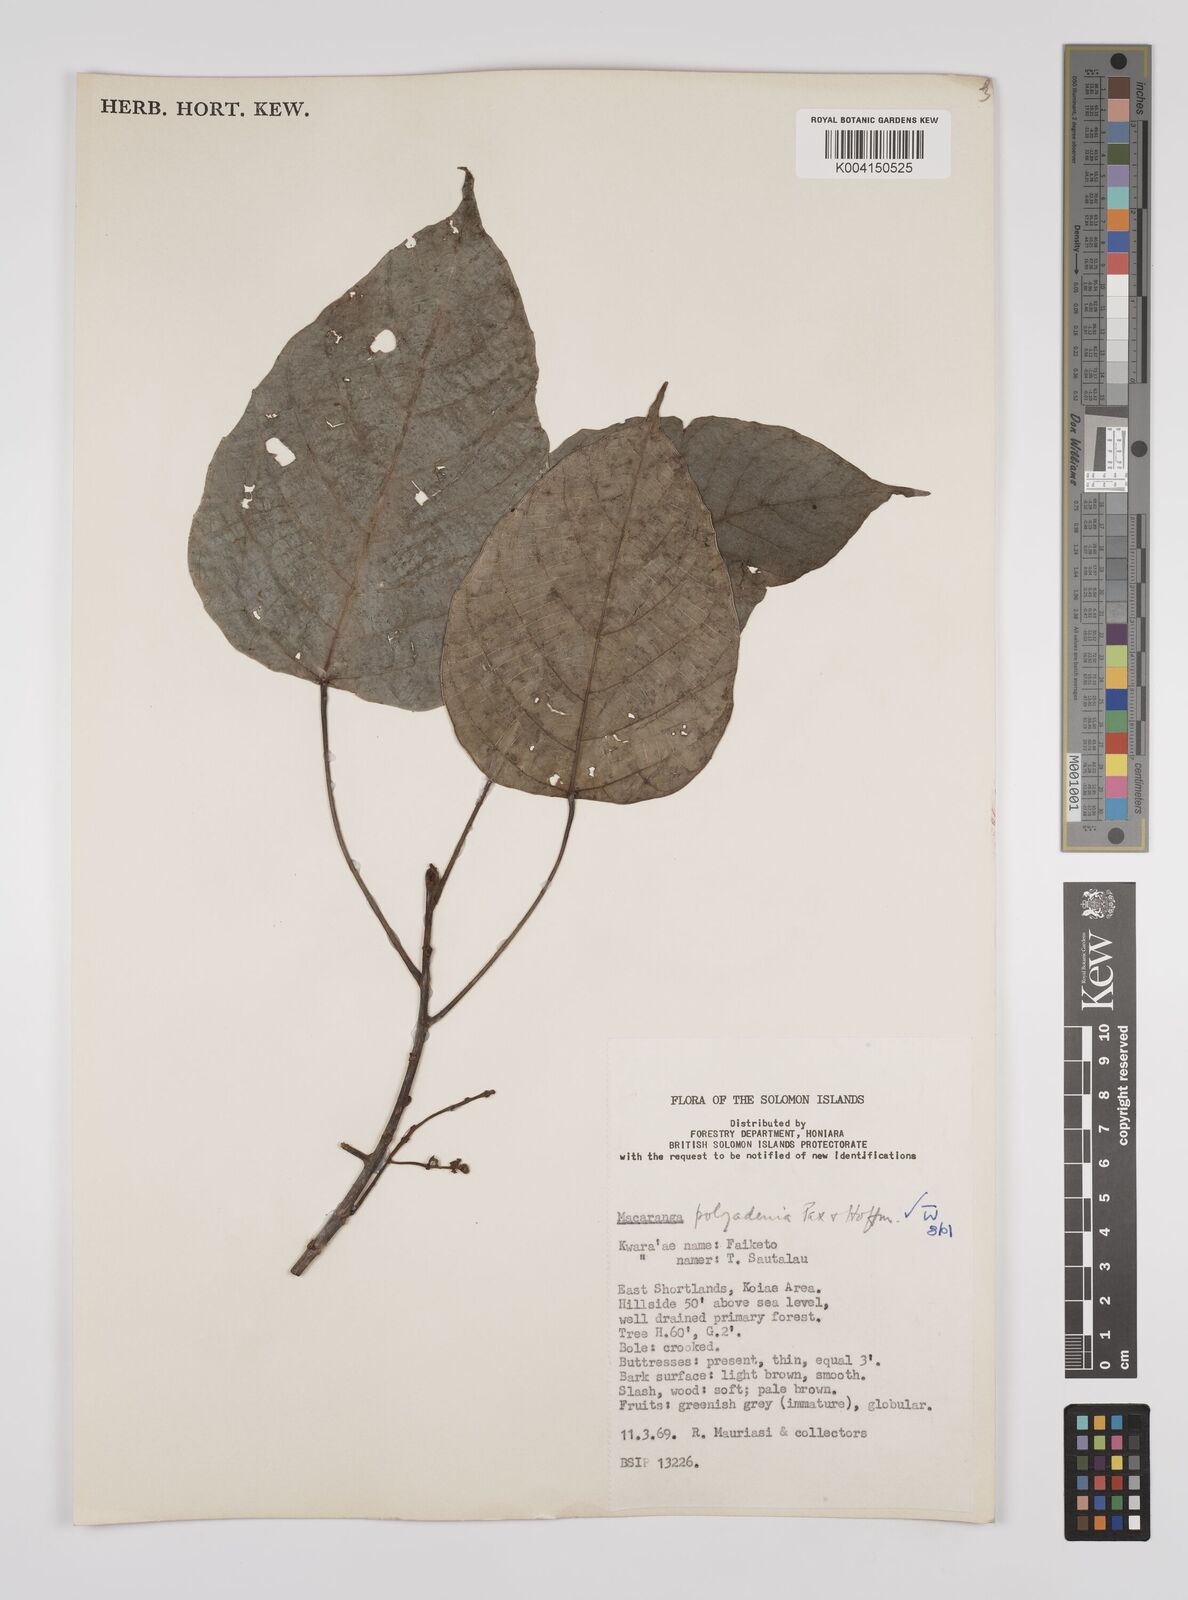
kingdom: Plantae
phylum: Tracheophyta
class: Magnoliopsida
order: Malpighiales
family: Euphorbiaceae
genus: Macaranga
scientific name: Macaranga polyadenia
